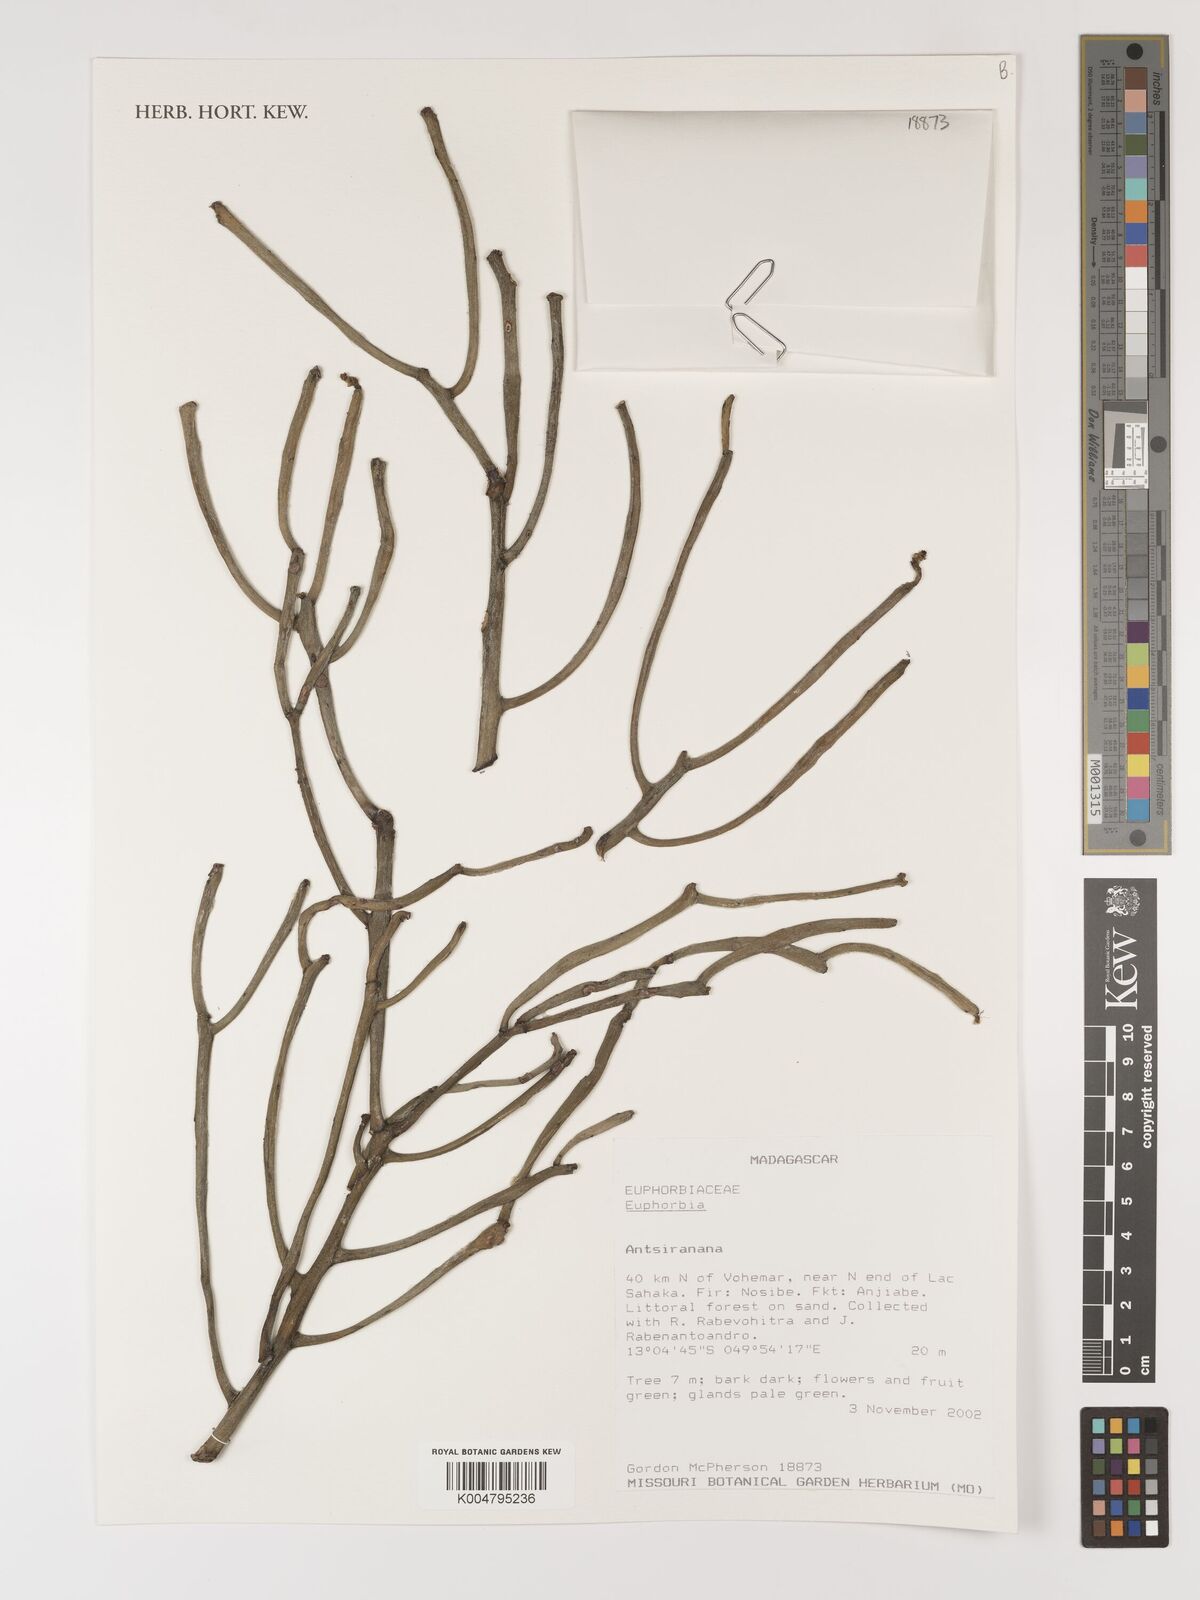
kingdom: Plantae
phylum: Tracheophyta
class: Magnoliopsida
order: Malpighiales
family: Euphorbiaceae
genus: Euphorbia
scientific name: Euphorbia
